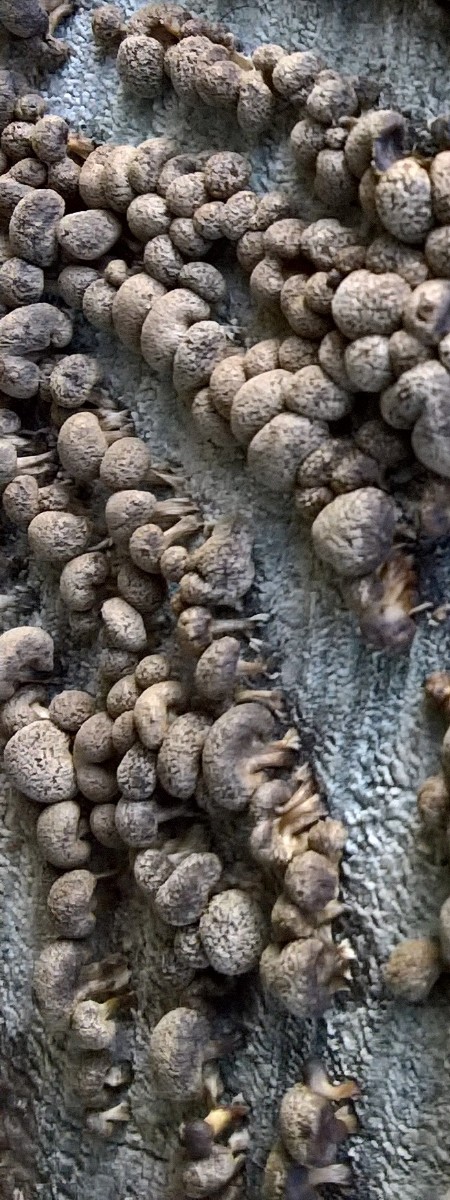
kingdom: Fungi
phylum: Basidiomycota
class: Atractiellomycetes
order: Atractiellales
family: Phleogenaceae
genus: Phleogena
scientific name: Phleogena faginea
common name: pudderkølle
